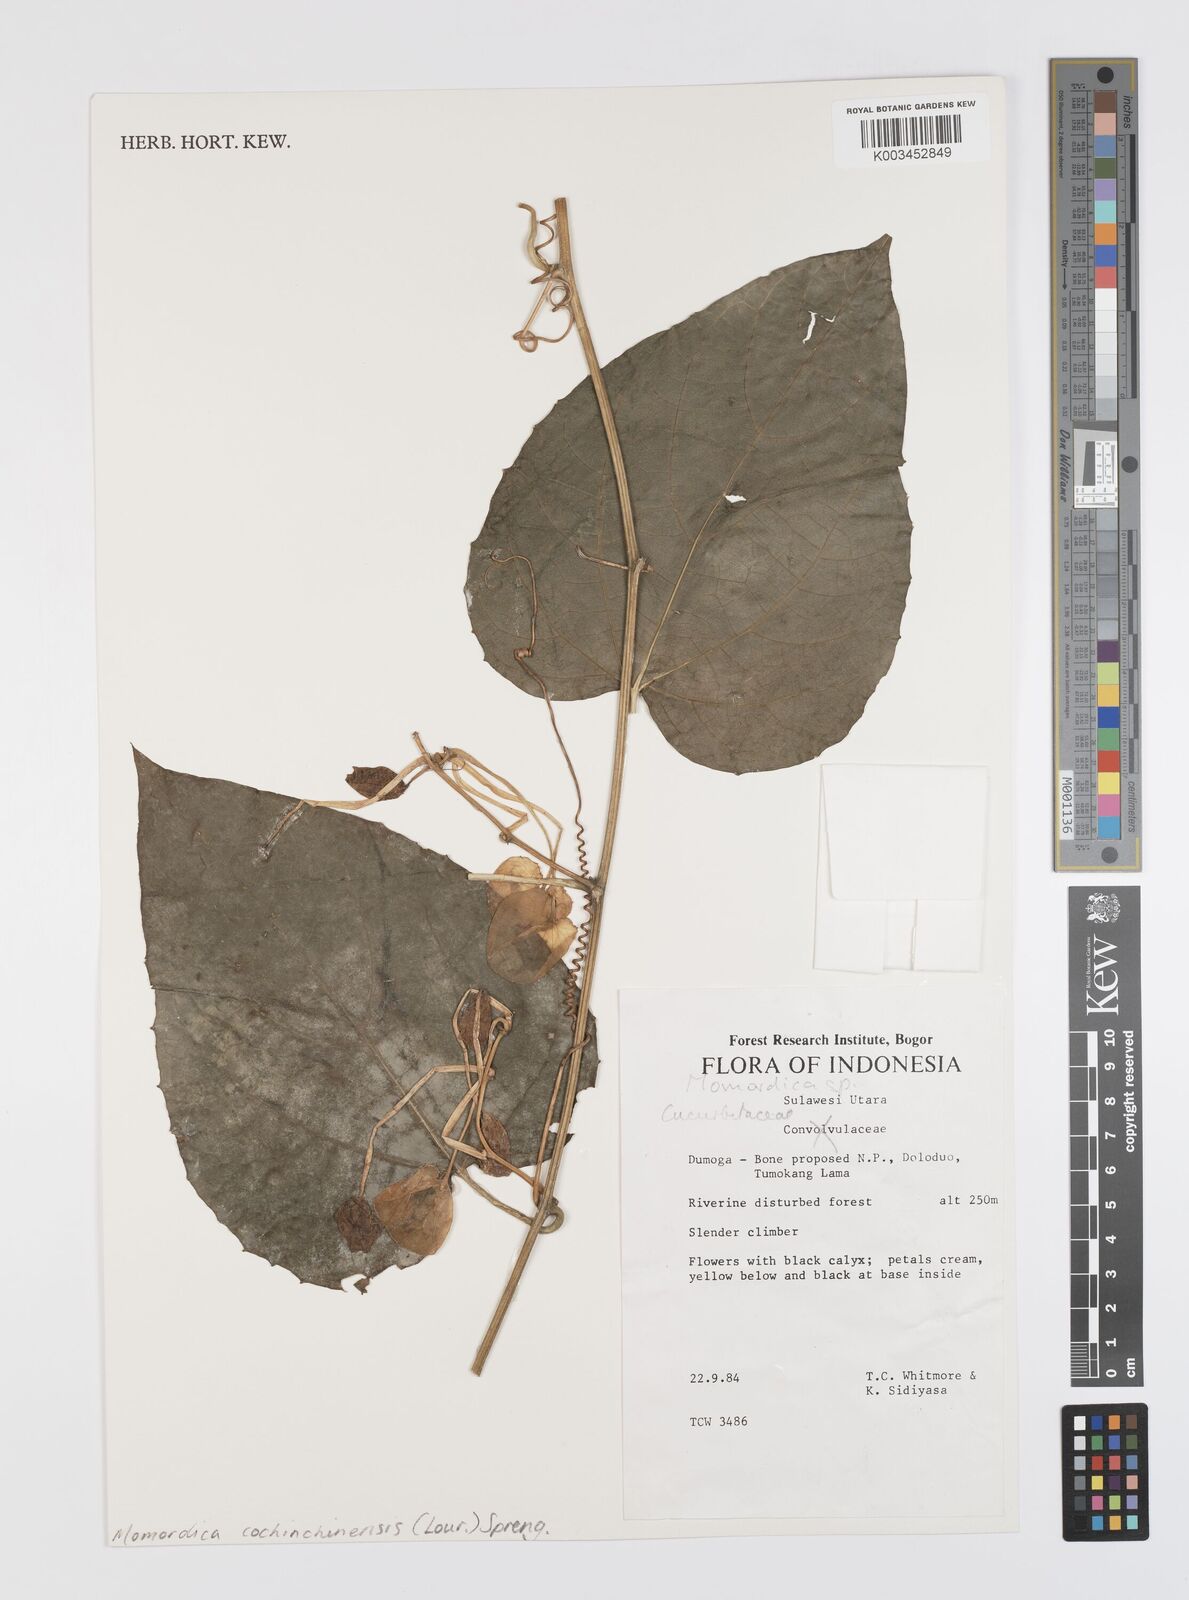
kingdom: Plantae
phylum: Tracheophyta
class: Magnoliopsida
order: Cucurbitales
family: Cucurbitaceae
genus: Momordica
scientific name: Momordica cochinchinensis
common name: Chinese bitter-cucumber
